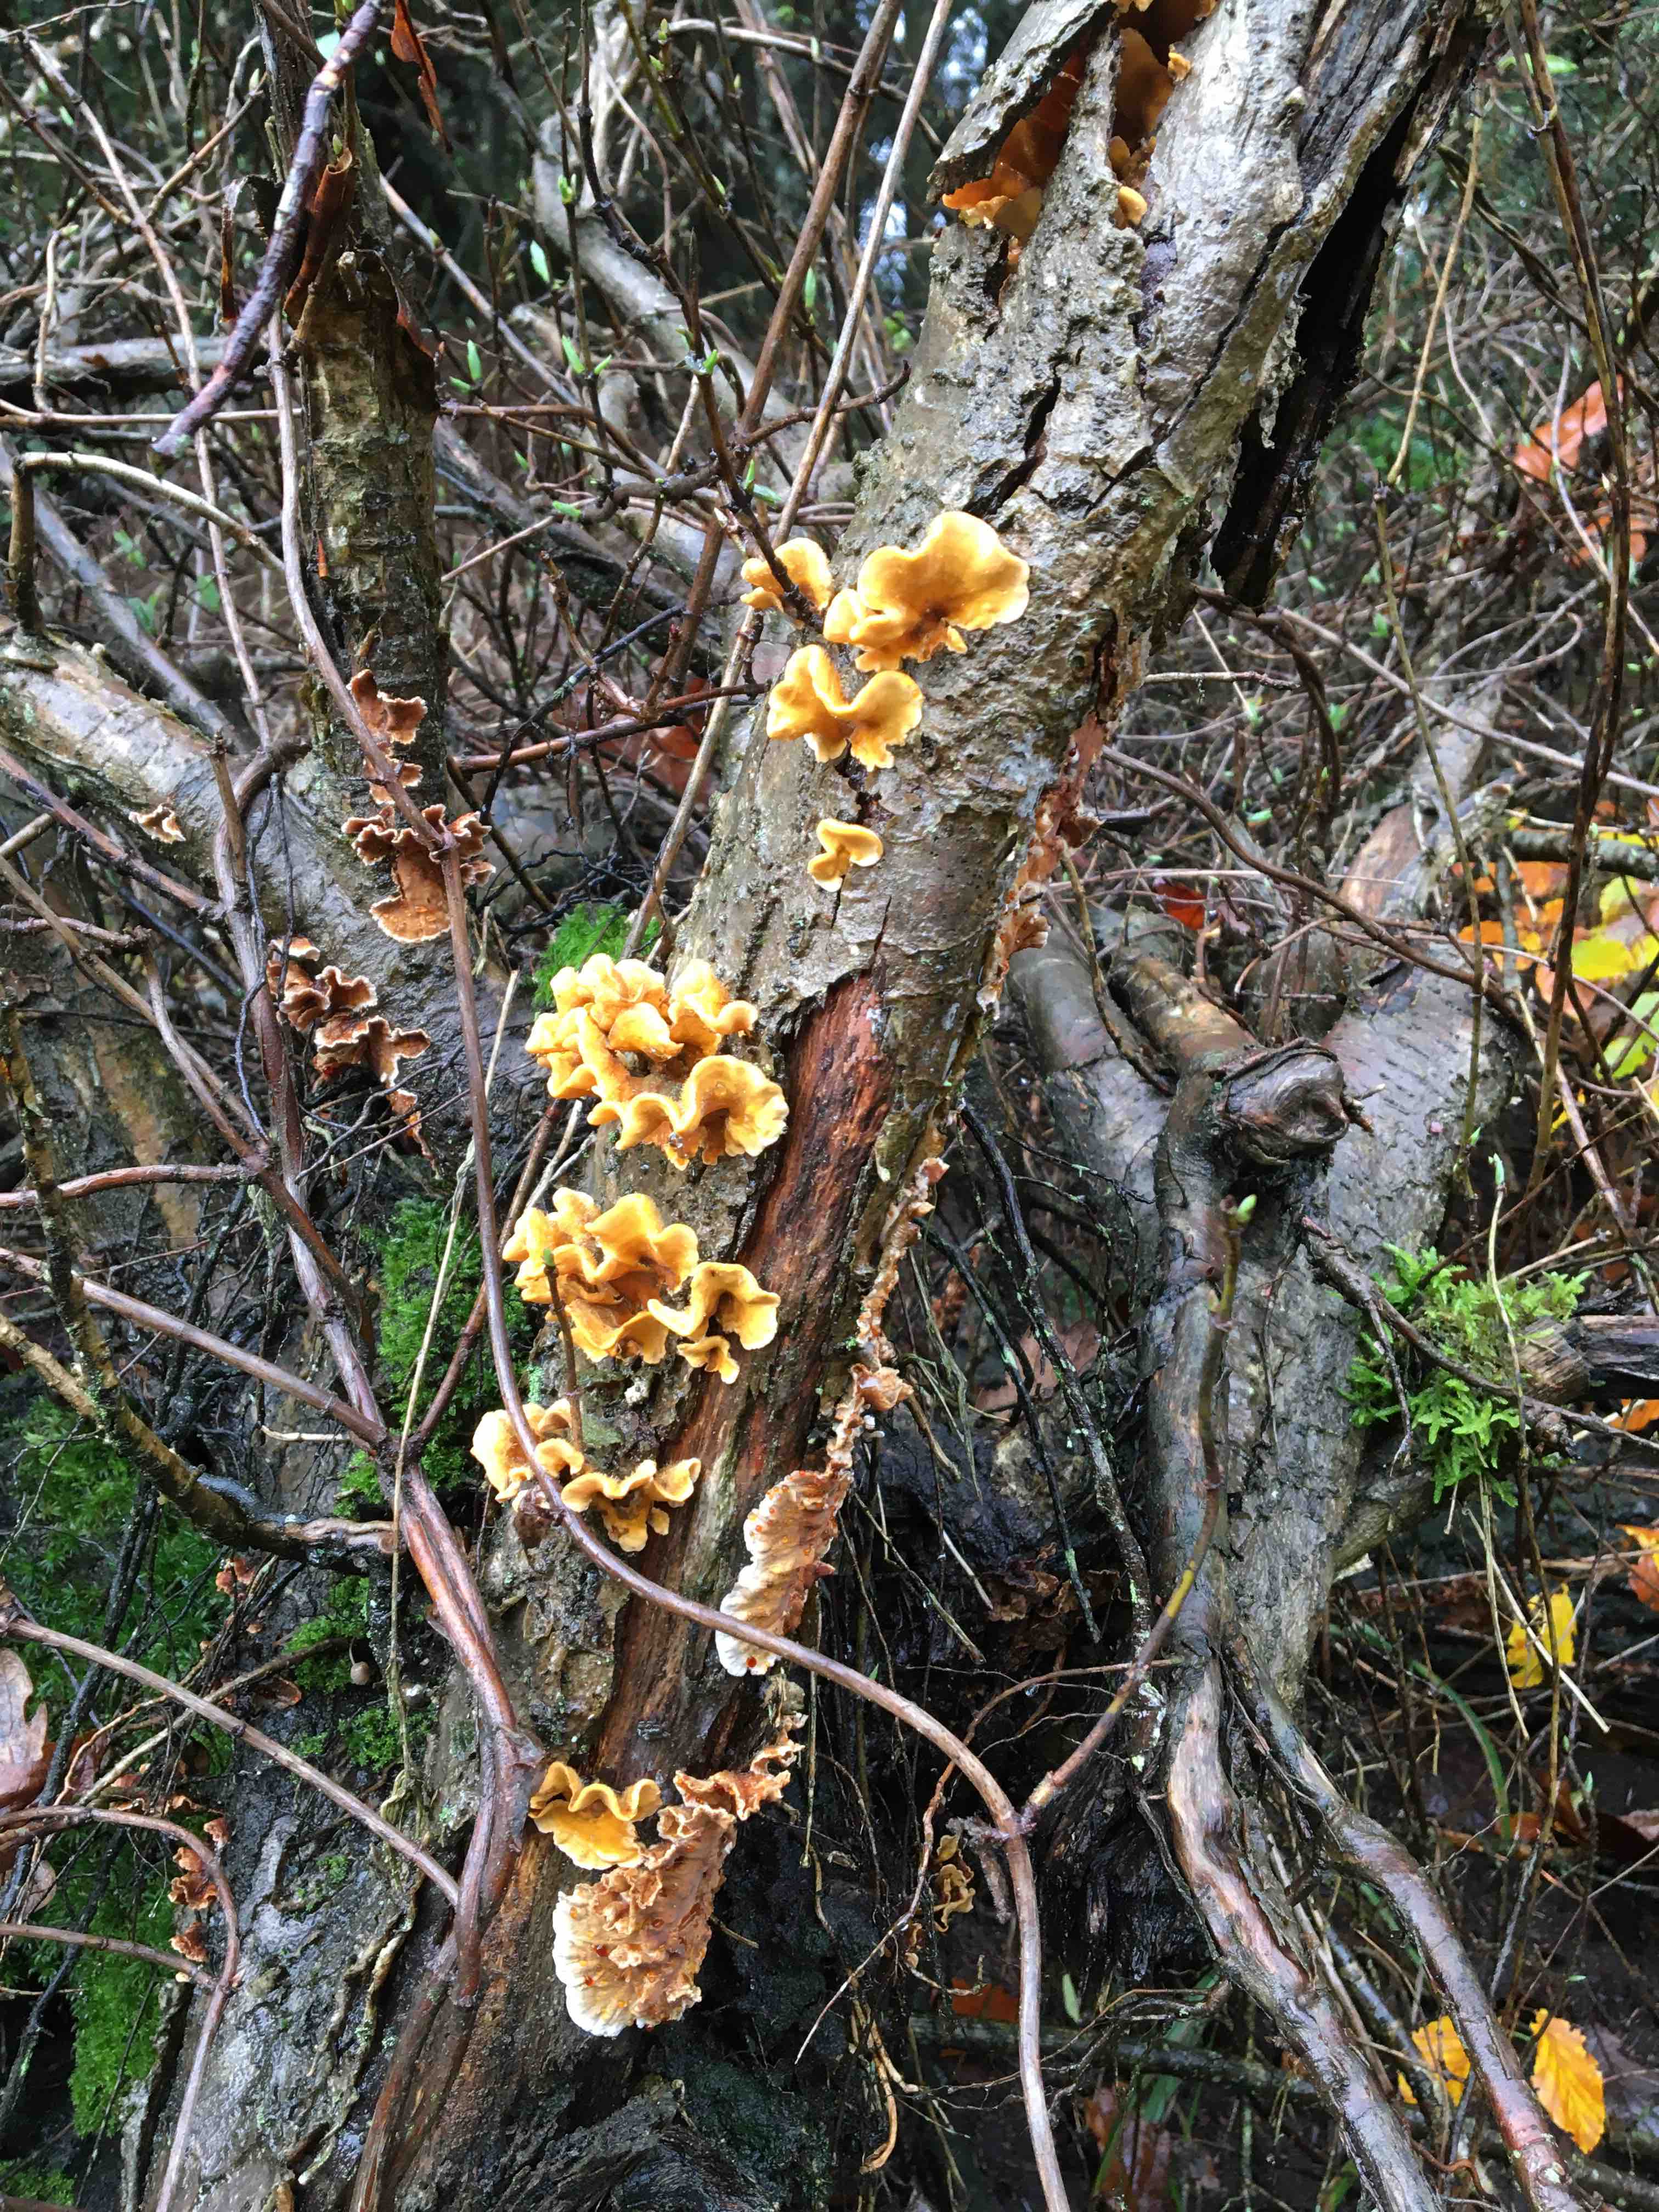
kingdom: Fungi
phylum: Basidiomycota
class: Agaricomycetes
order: Russulales
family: Stereaceae
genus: Stereum
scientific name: Stereum hirsutum
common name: håret lædersvamp
